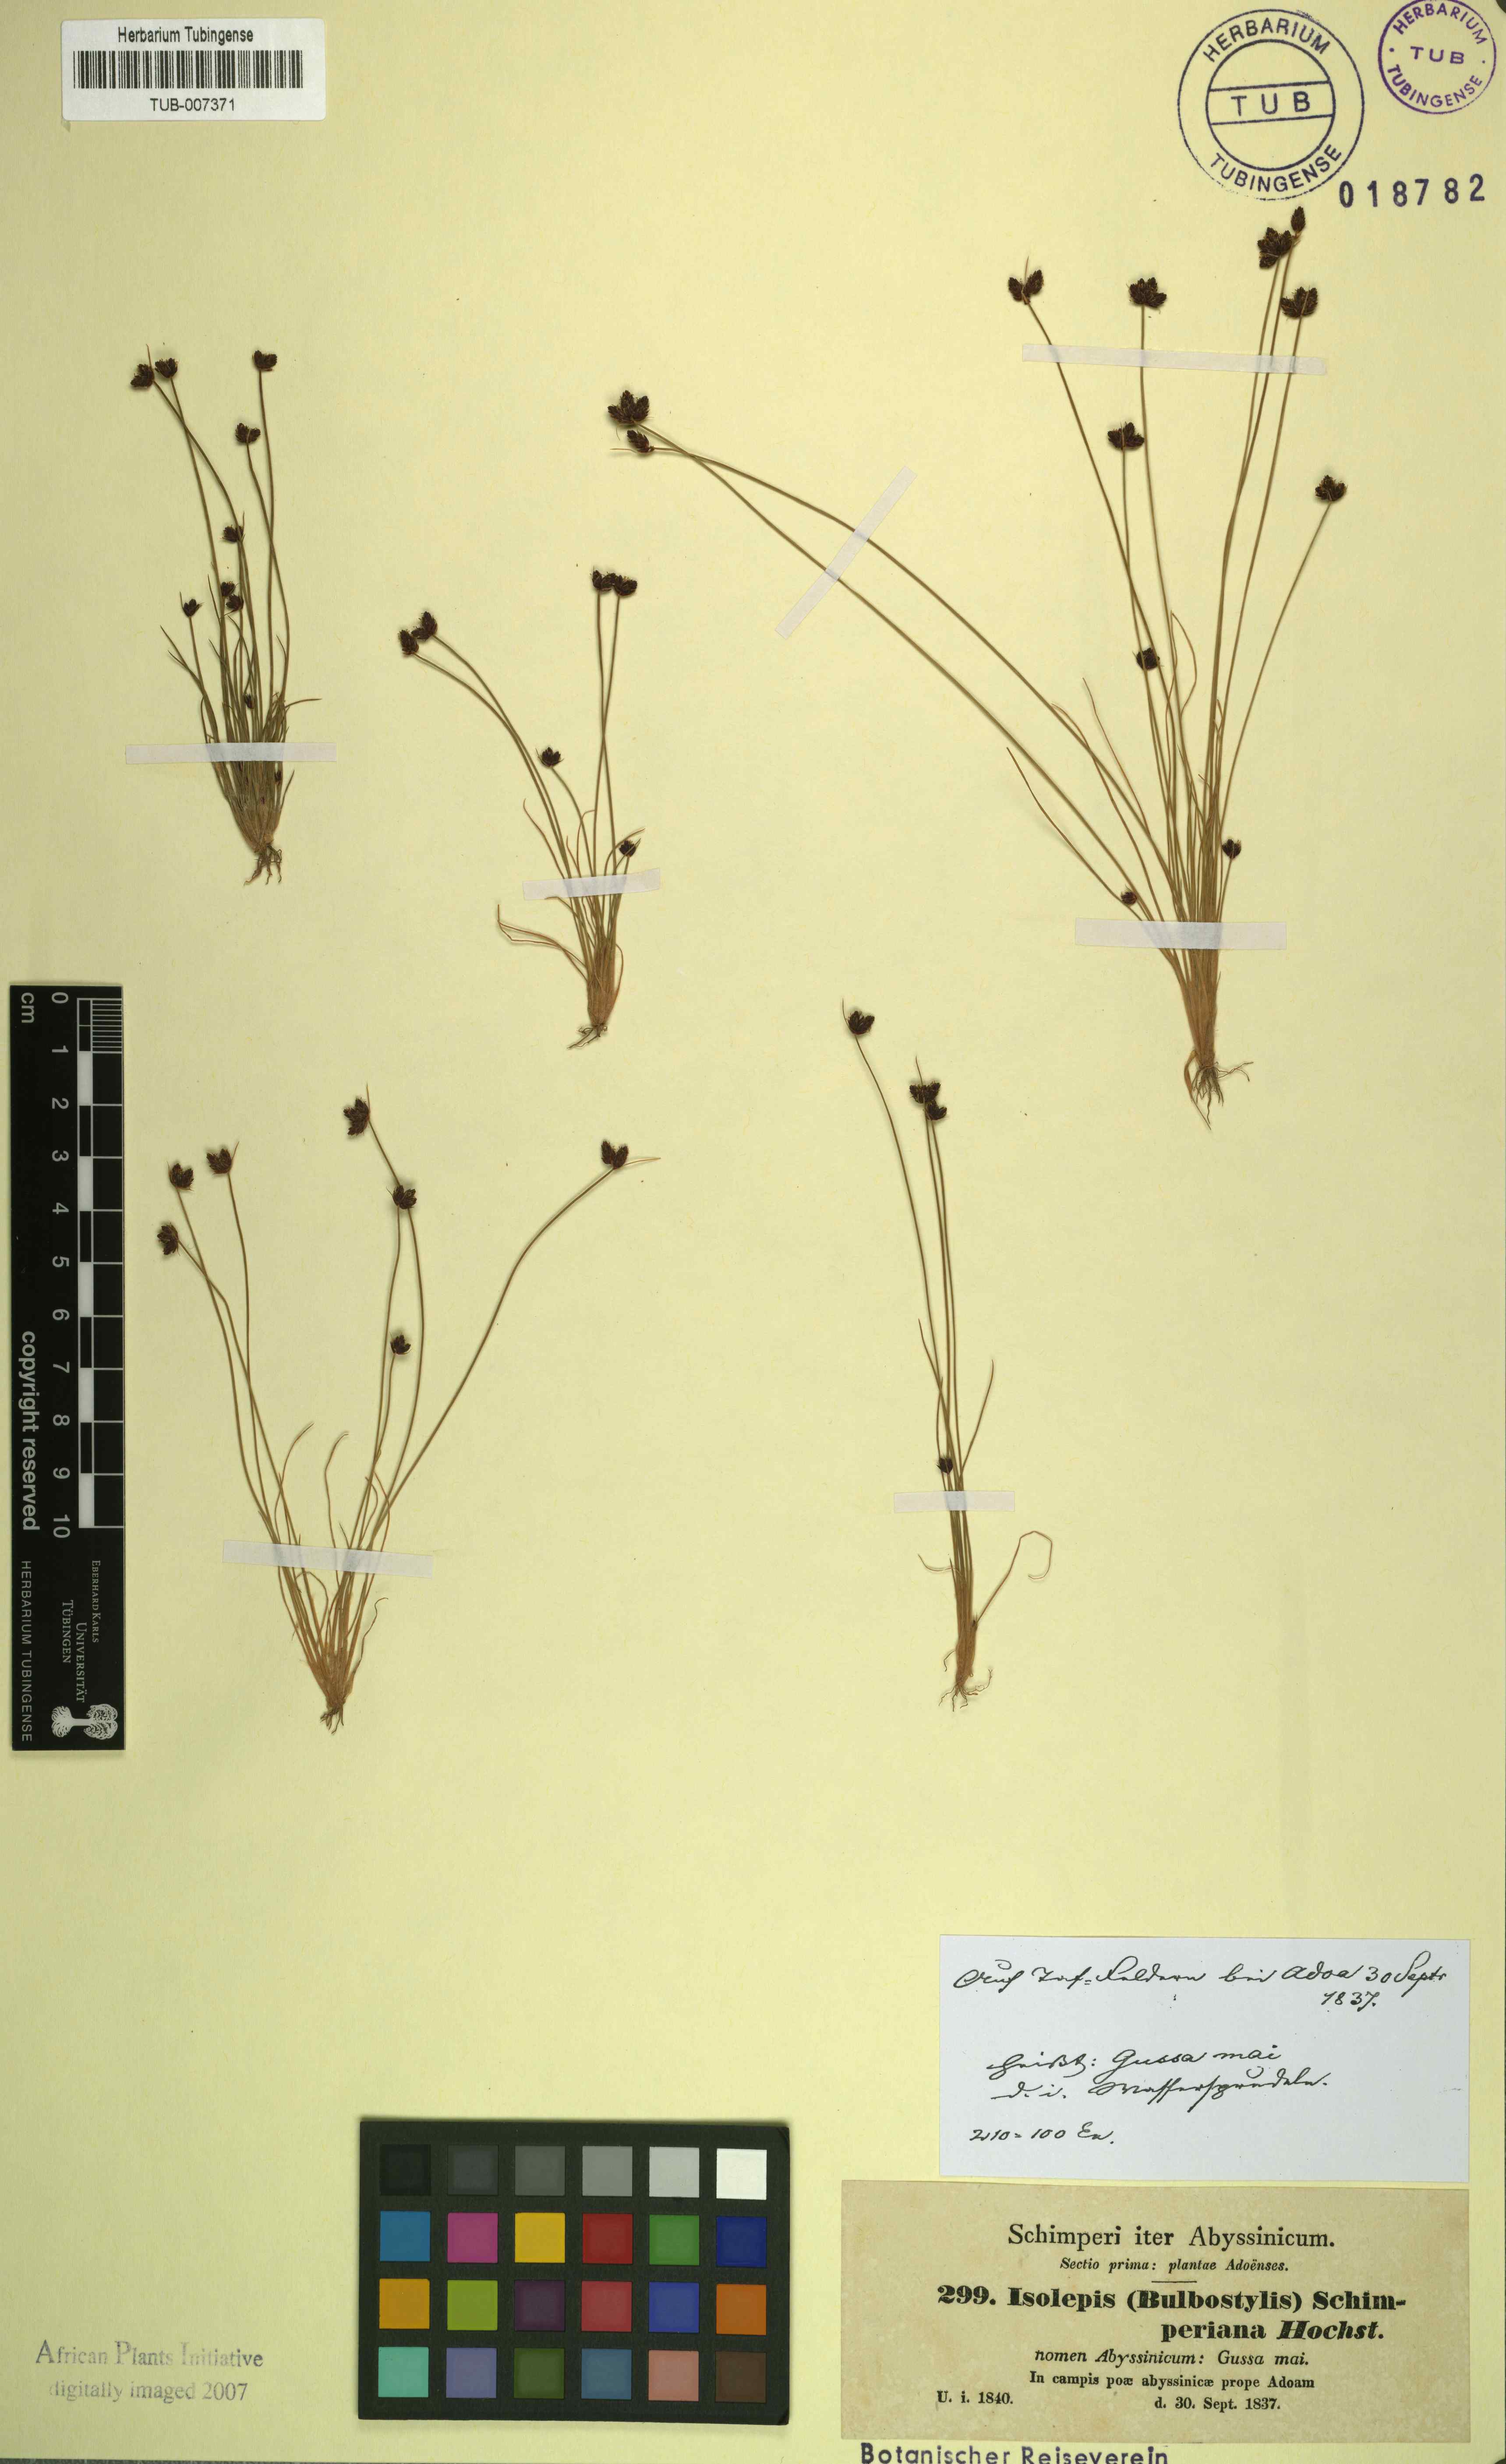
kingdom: Plantae
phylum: Tracheophyta
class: Liliopsida
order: Poales
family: Cyperaceae
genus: Bulbostylis
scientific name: Bulbostylis schimperiana
